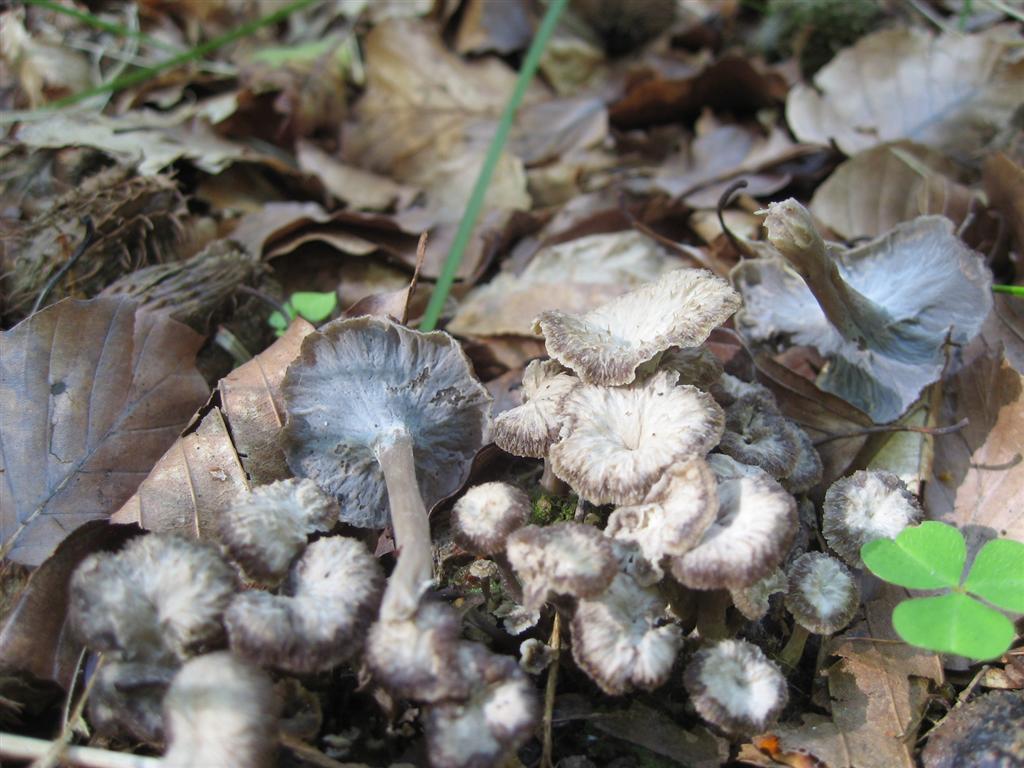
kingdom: Fungi
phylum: Basidiomycota
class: Agaricomycetes
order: Cantharellales
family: Hydnaceae
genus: Craterellus
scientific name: Craterellus undulatus
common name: liden kantarel
